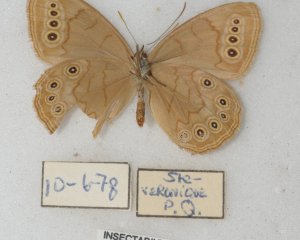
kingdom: Animalia
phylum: Arthropoda
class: Insecta
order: Lepidoptera
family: Nymphalidae
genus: Lethe
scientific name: Lethe eurydice
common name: Eyed Brown
